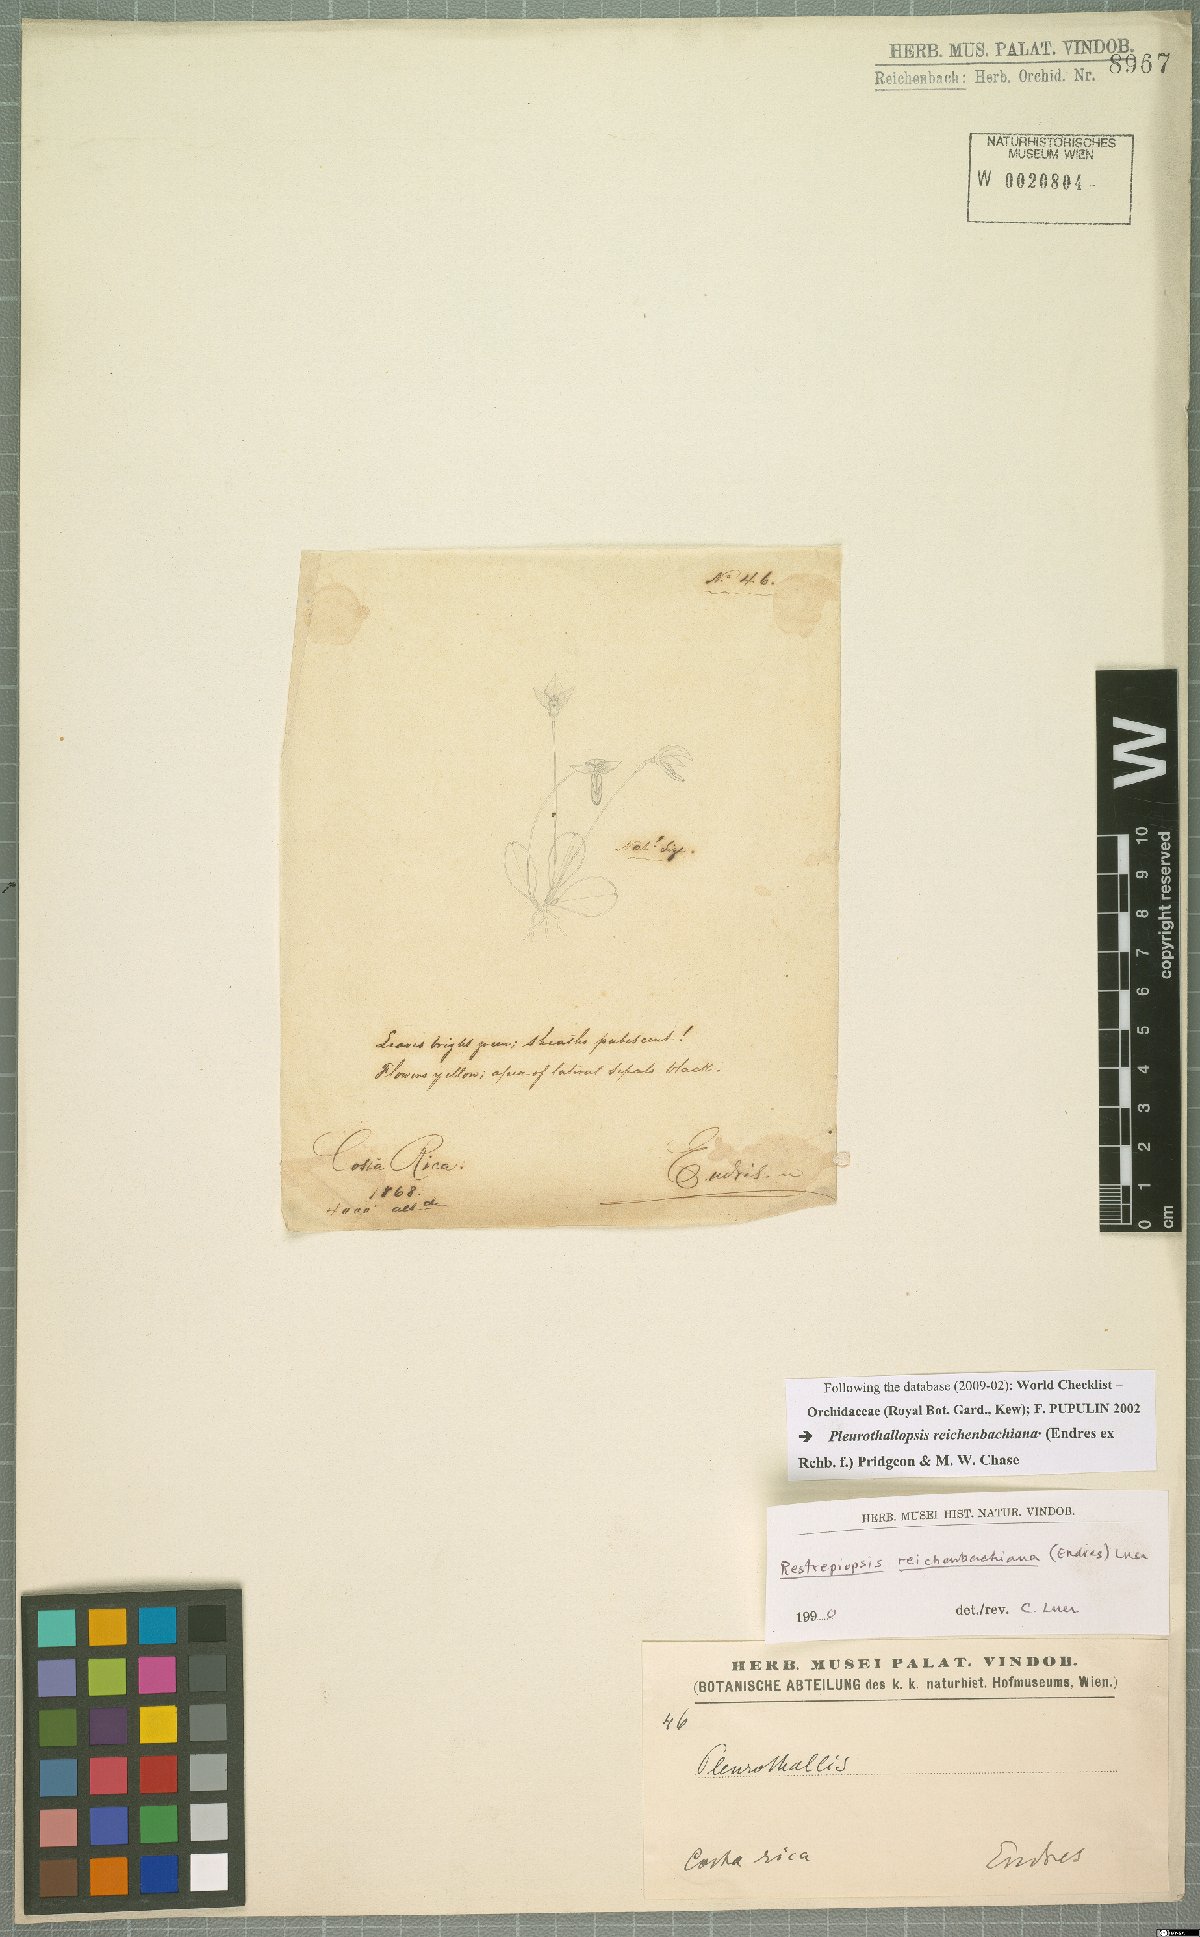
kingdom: Plantae
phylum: Tracheophyta
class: Liliopsida
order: Asparagales
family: Orchidaceae
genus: Pleurothallopsis
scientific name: Pleurothallopsis reichenbachiana
